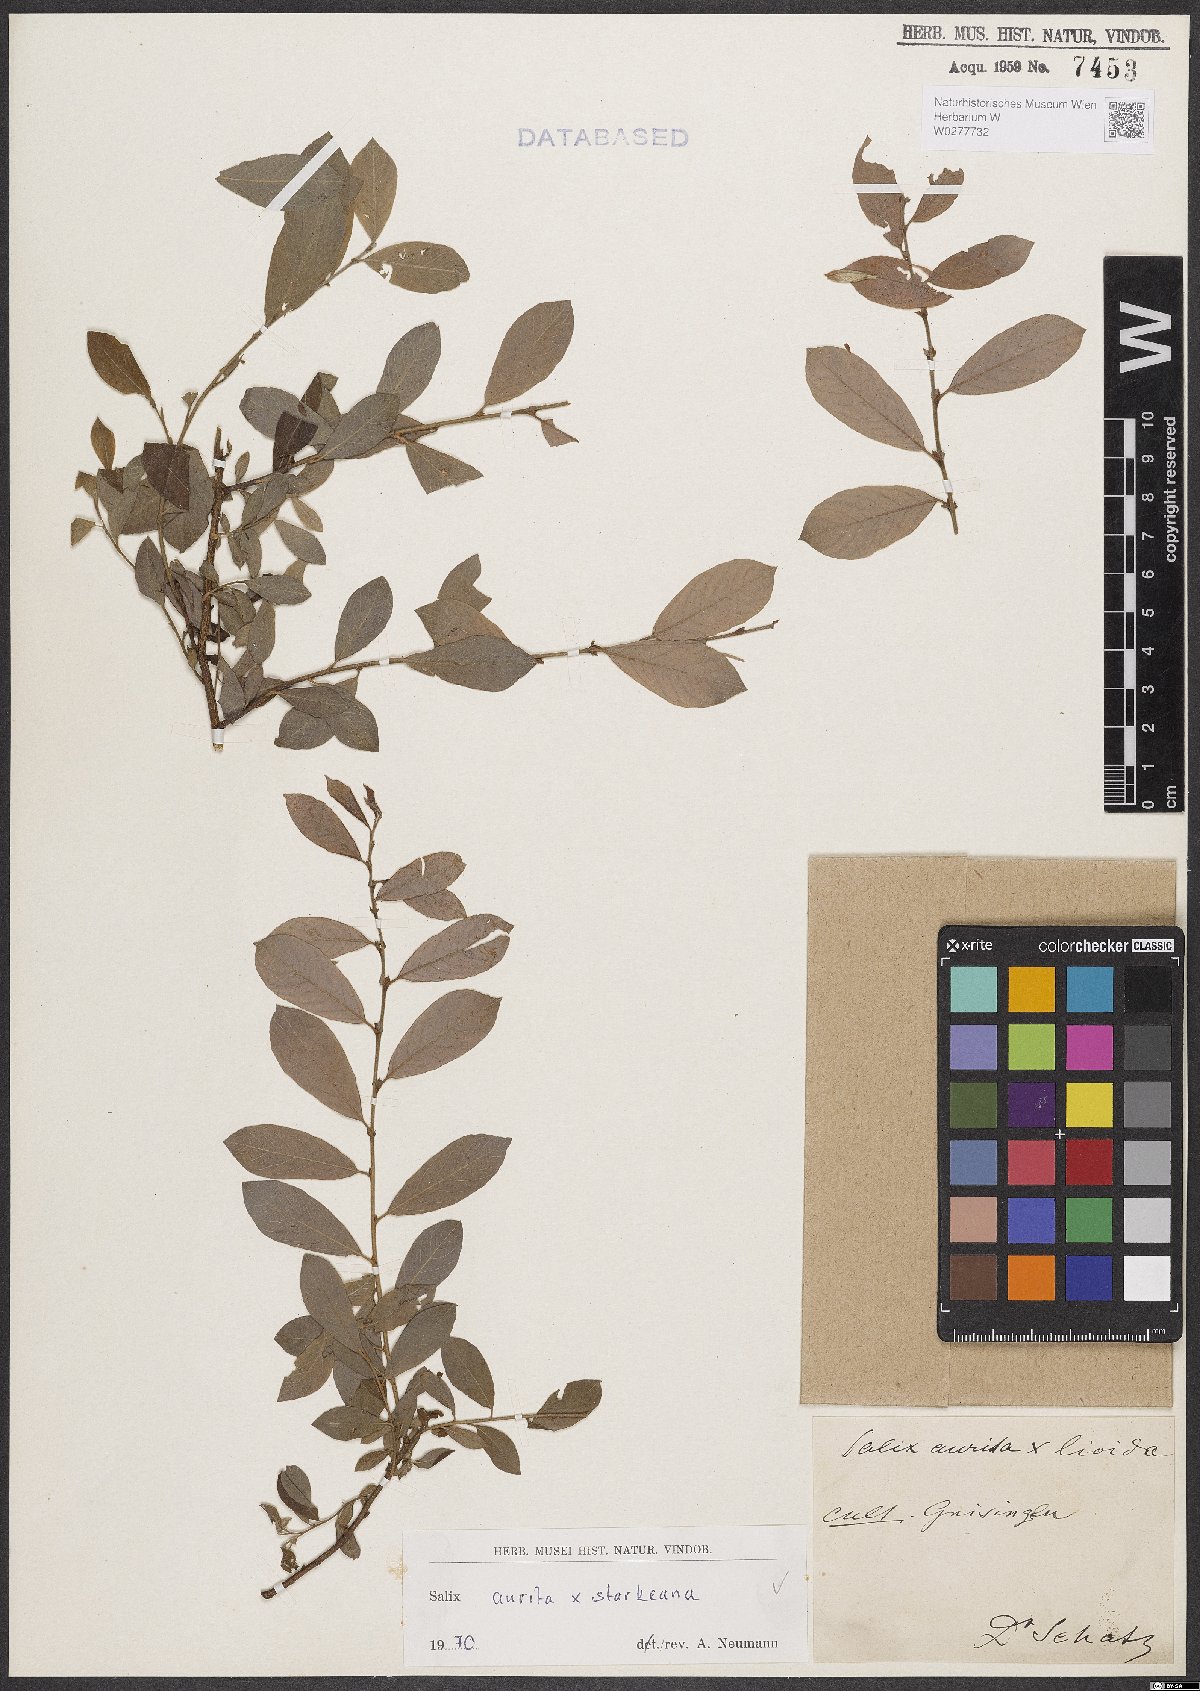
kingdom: Plantae
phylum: Tracheophyta
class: Magnoliopsida
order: Malpighiales
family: Salicaceae
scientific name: Salicaceae
